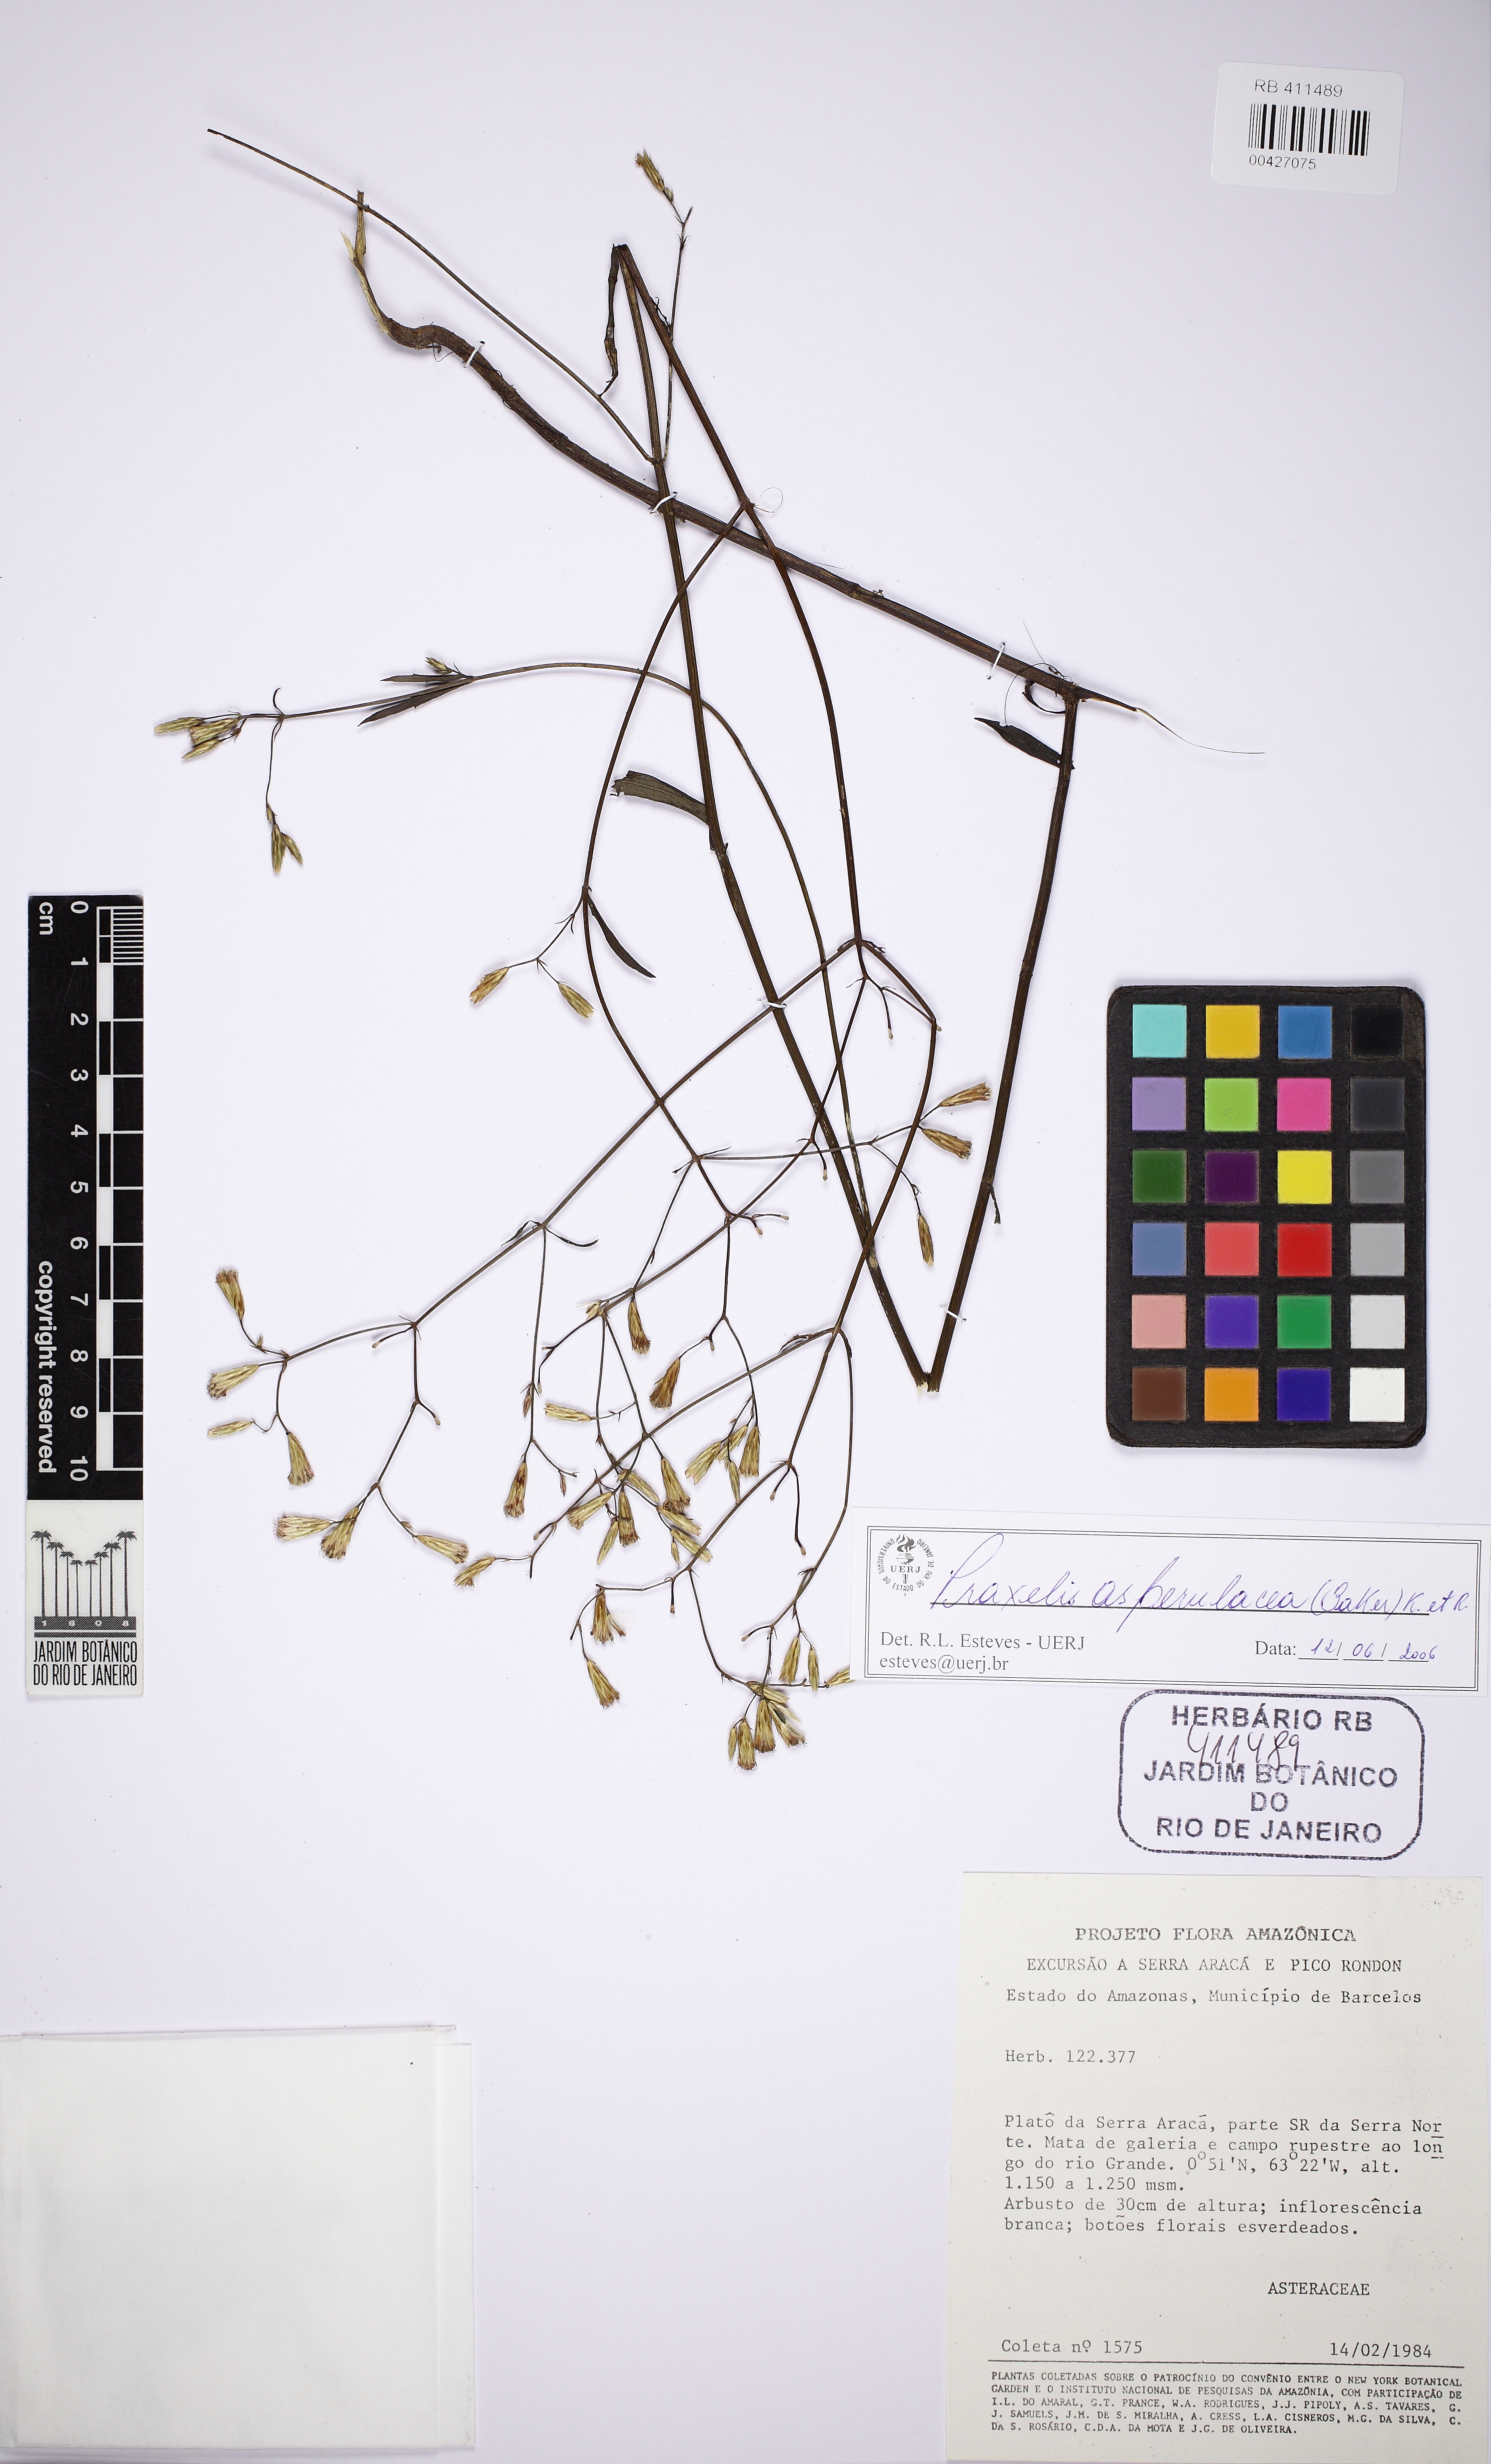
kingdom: Plantae
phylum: Tracheophyta
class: Magnoliopsida
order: Asterales
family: Asteraceae
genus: Praxelis
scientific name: Praxelis asperulacea
